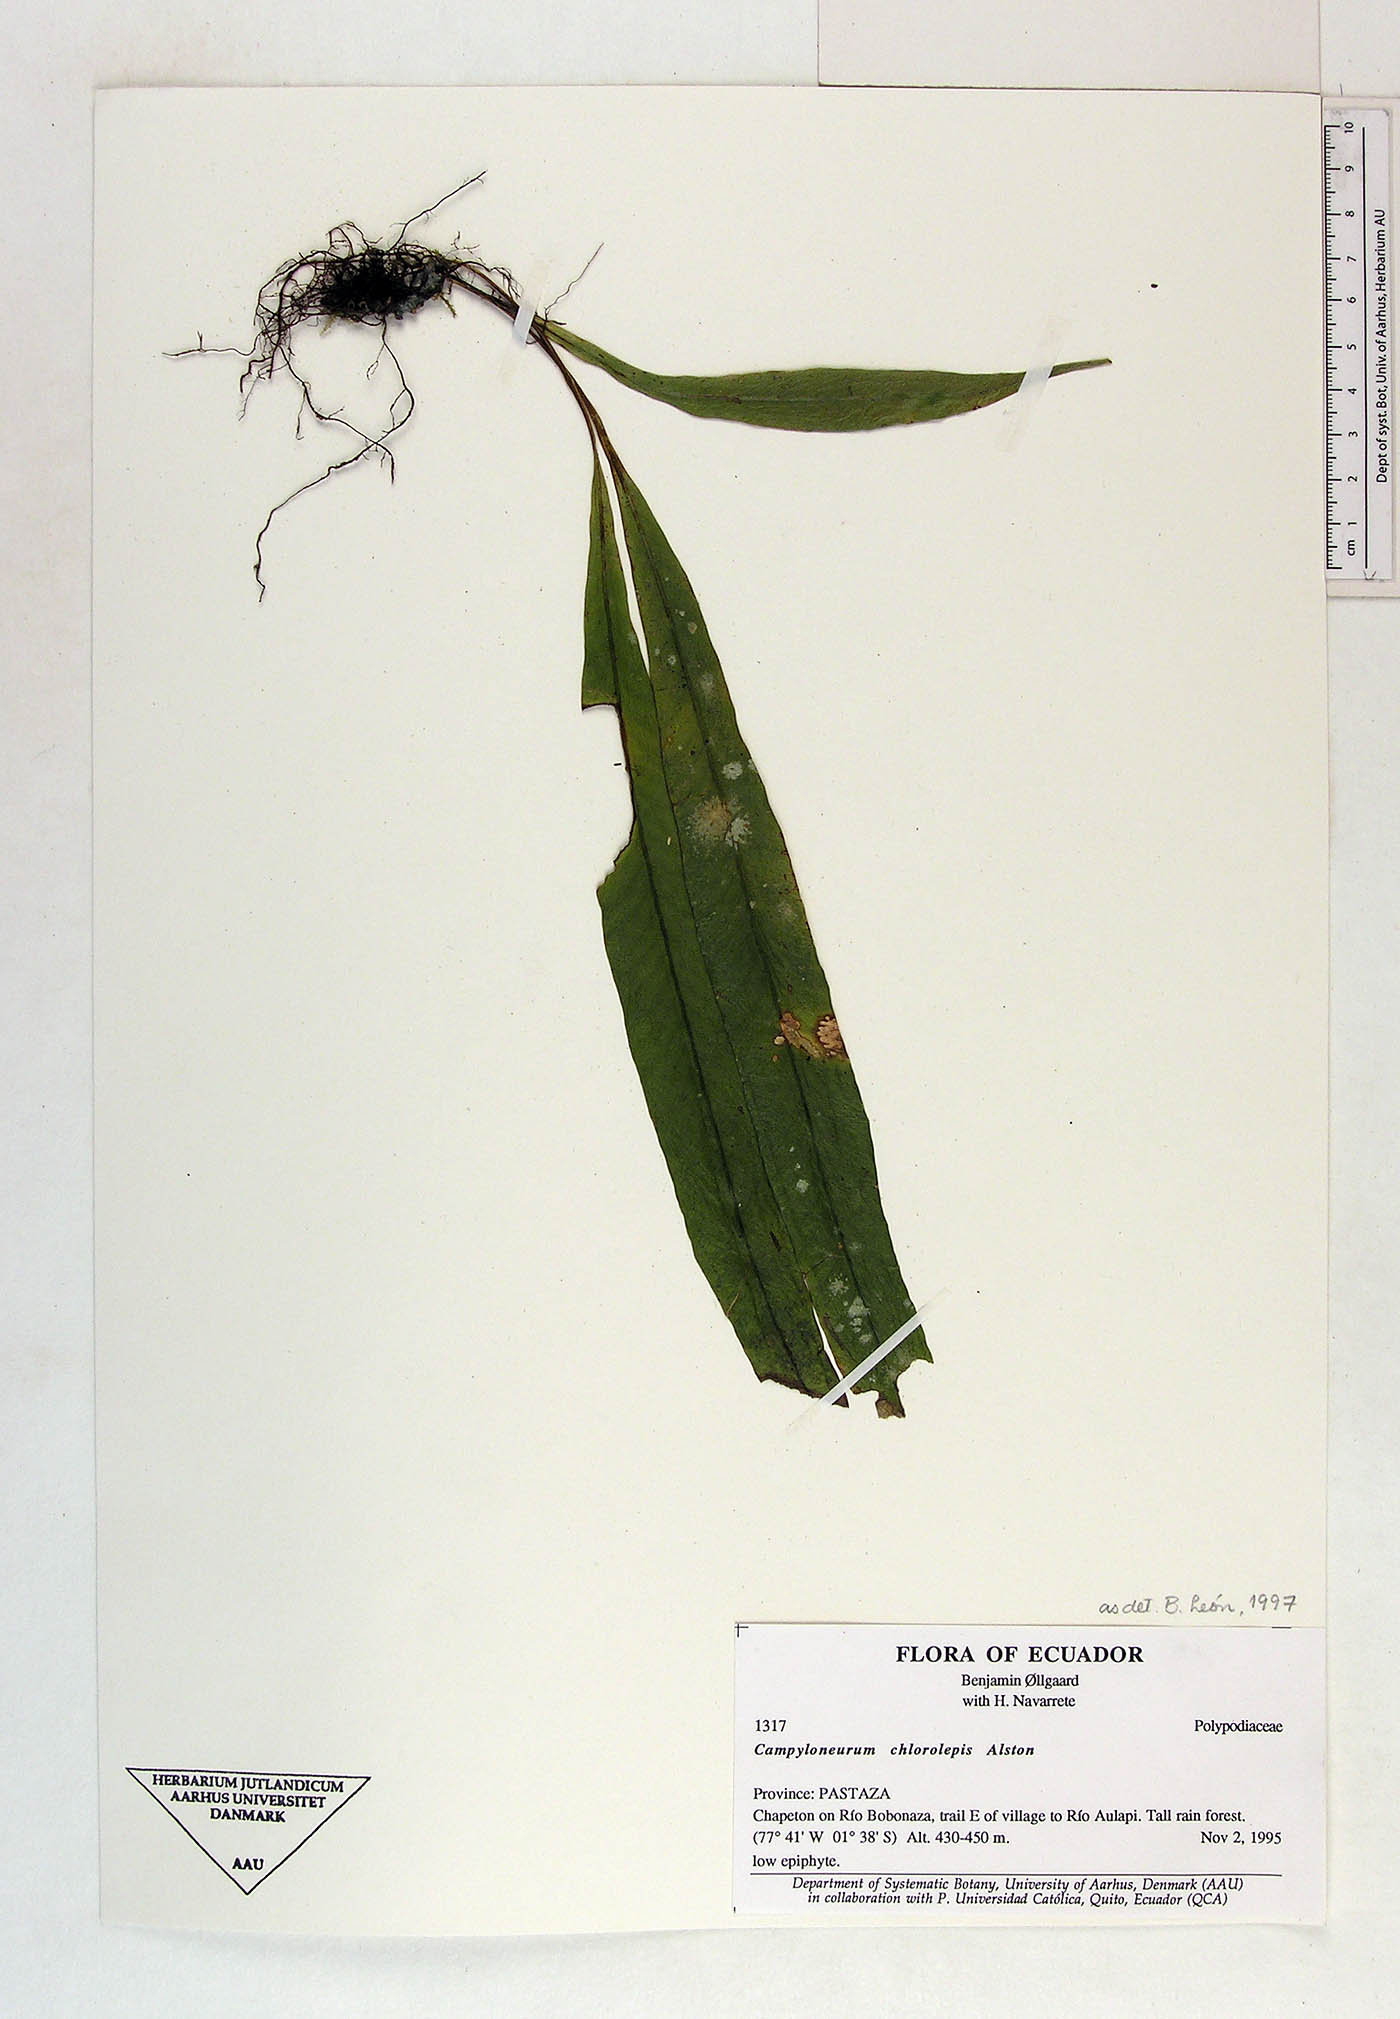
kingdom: Plantae
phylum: Tracheophyta
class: Polypodiopsida
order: Polypodiales
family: Polypodiaceae
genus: Campyloneurum
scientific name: Campyloneurum chlorolepis
